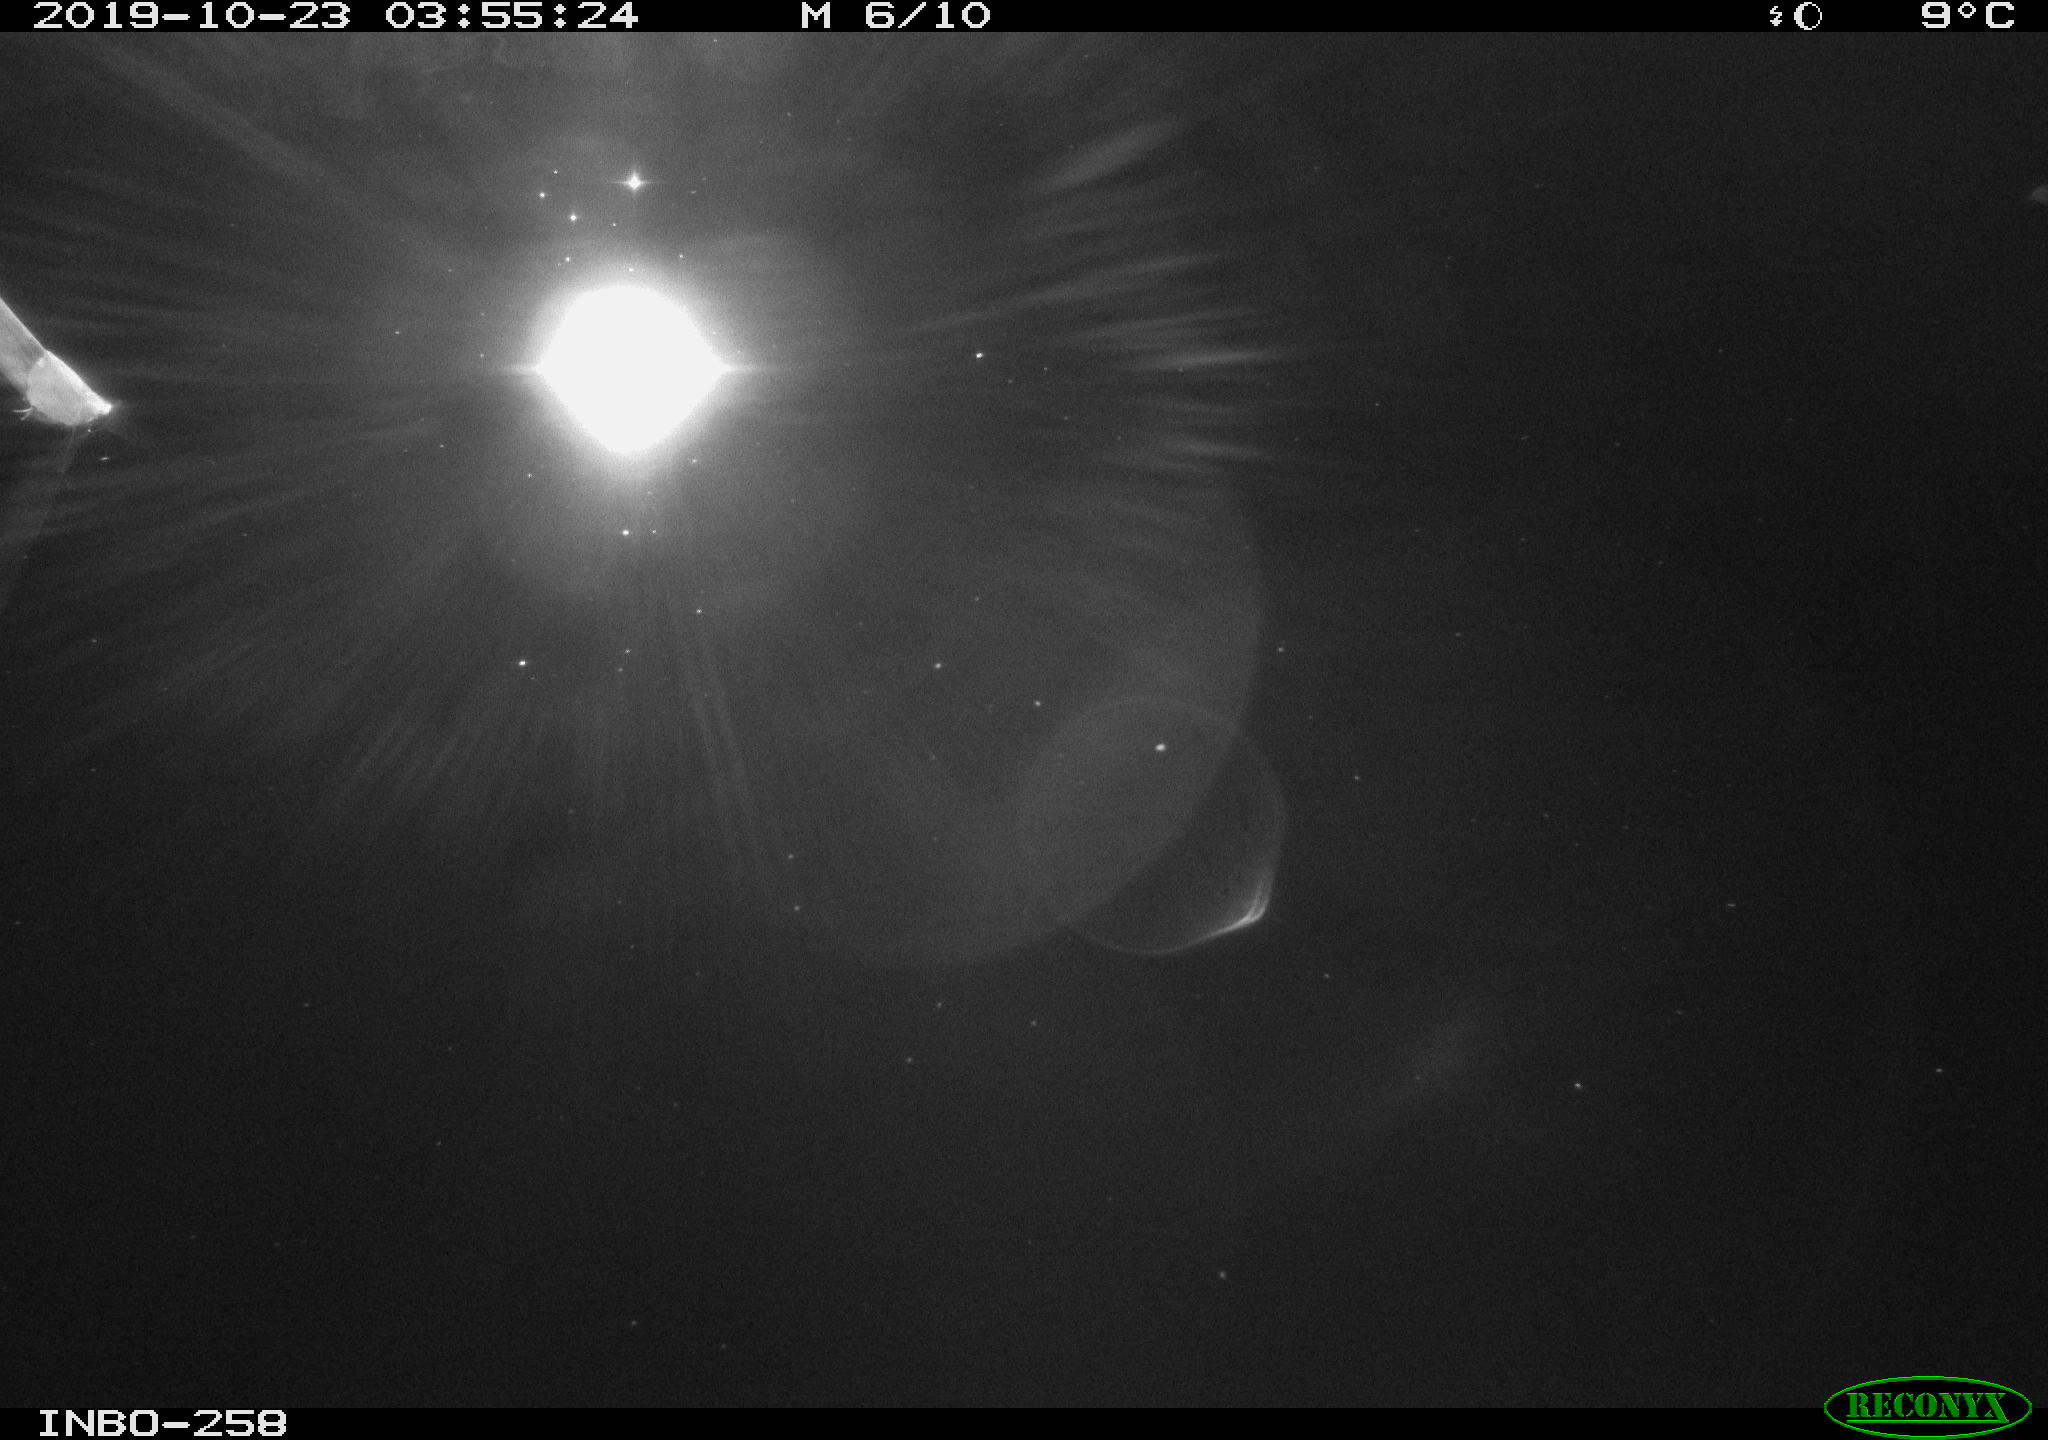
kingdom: Animalia
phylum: Chordata
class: Mammalia
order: Rodentia
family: Muridae
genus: Rattus
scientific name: Rattus norvegicus
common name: Brown rat
